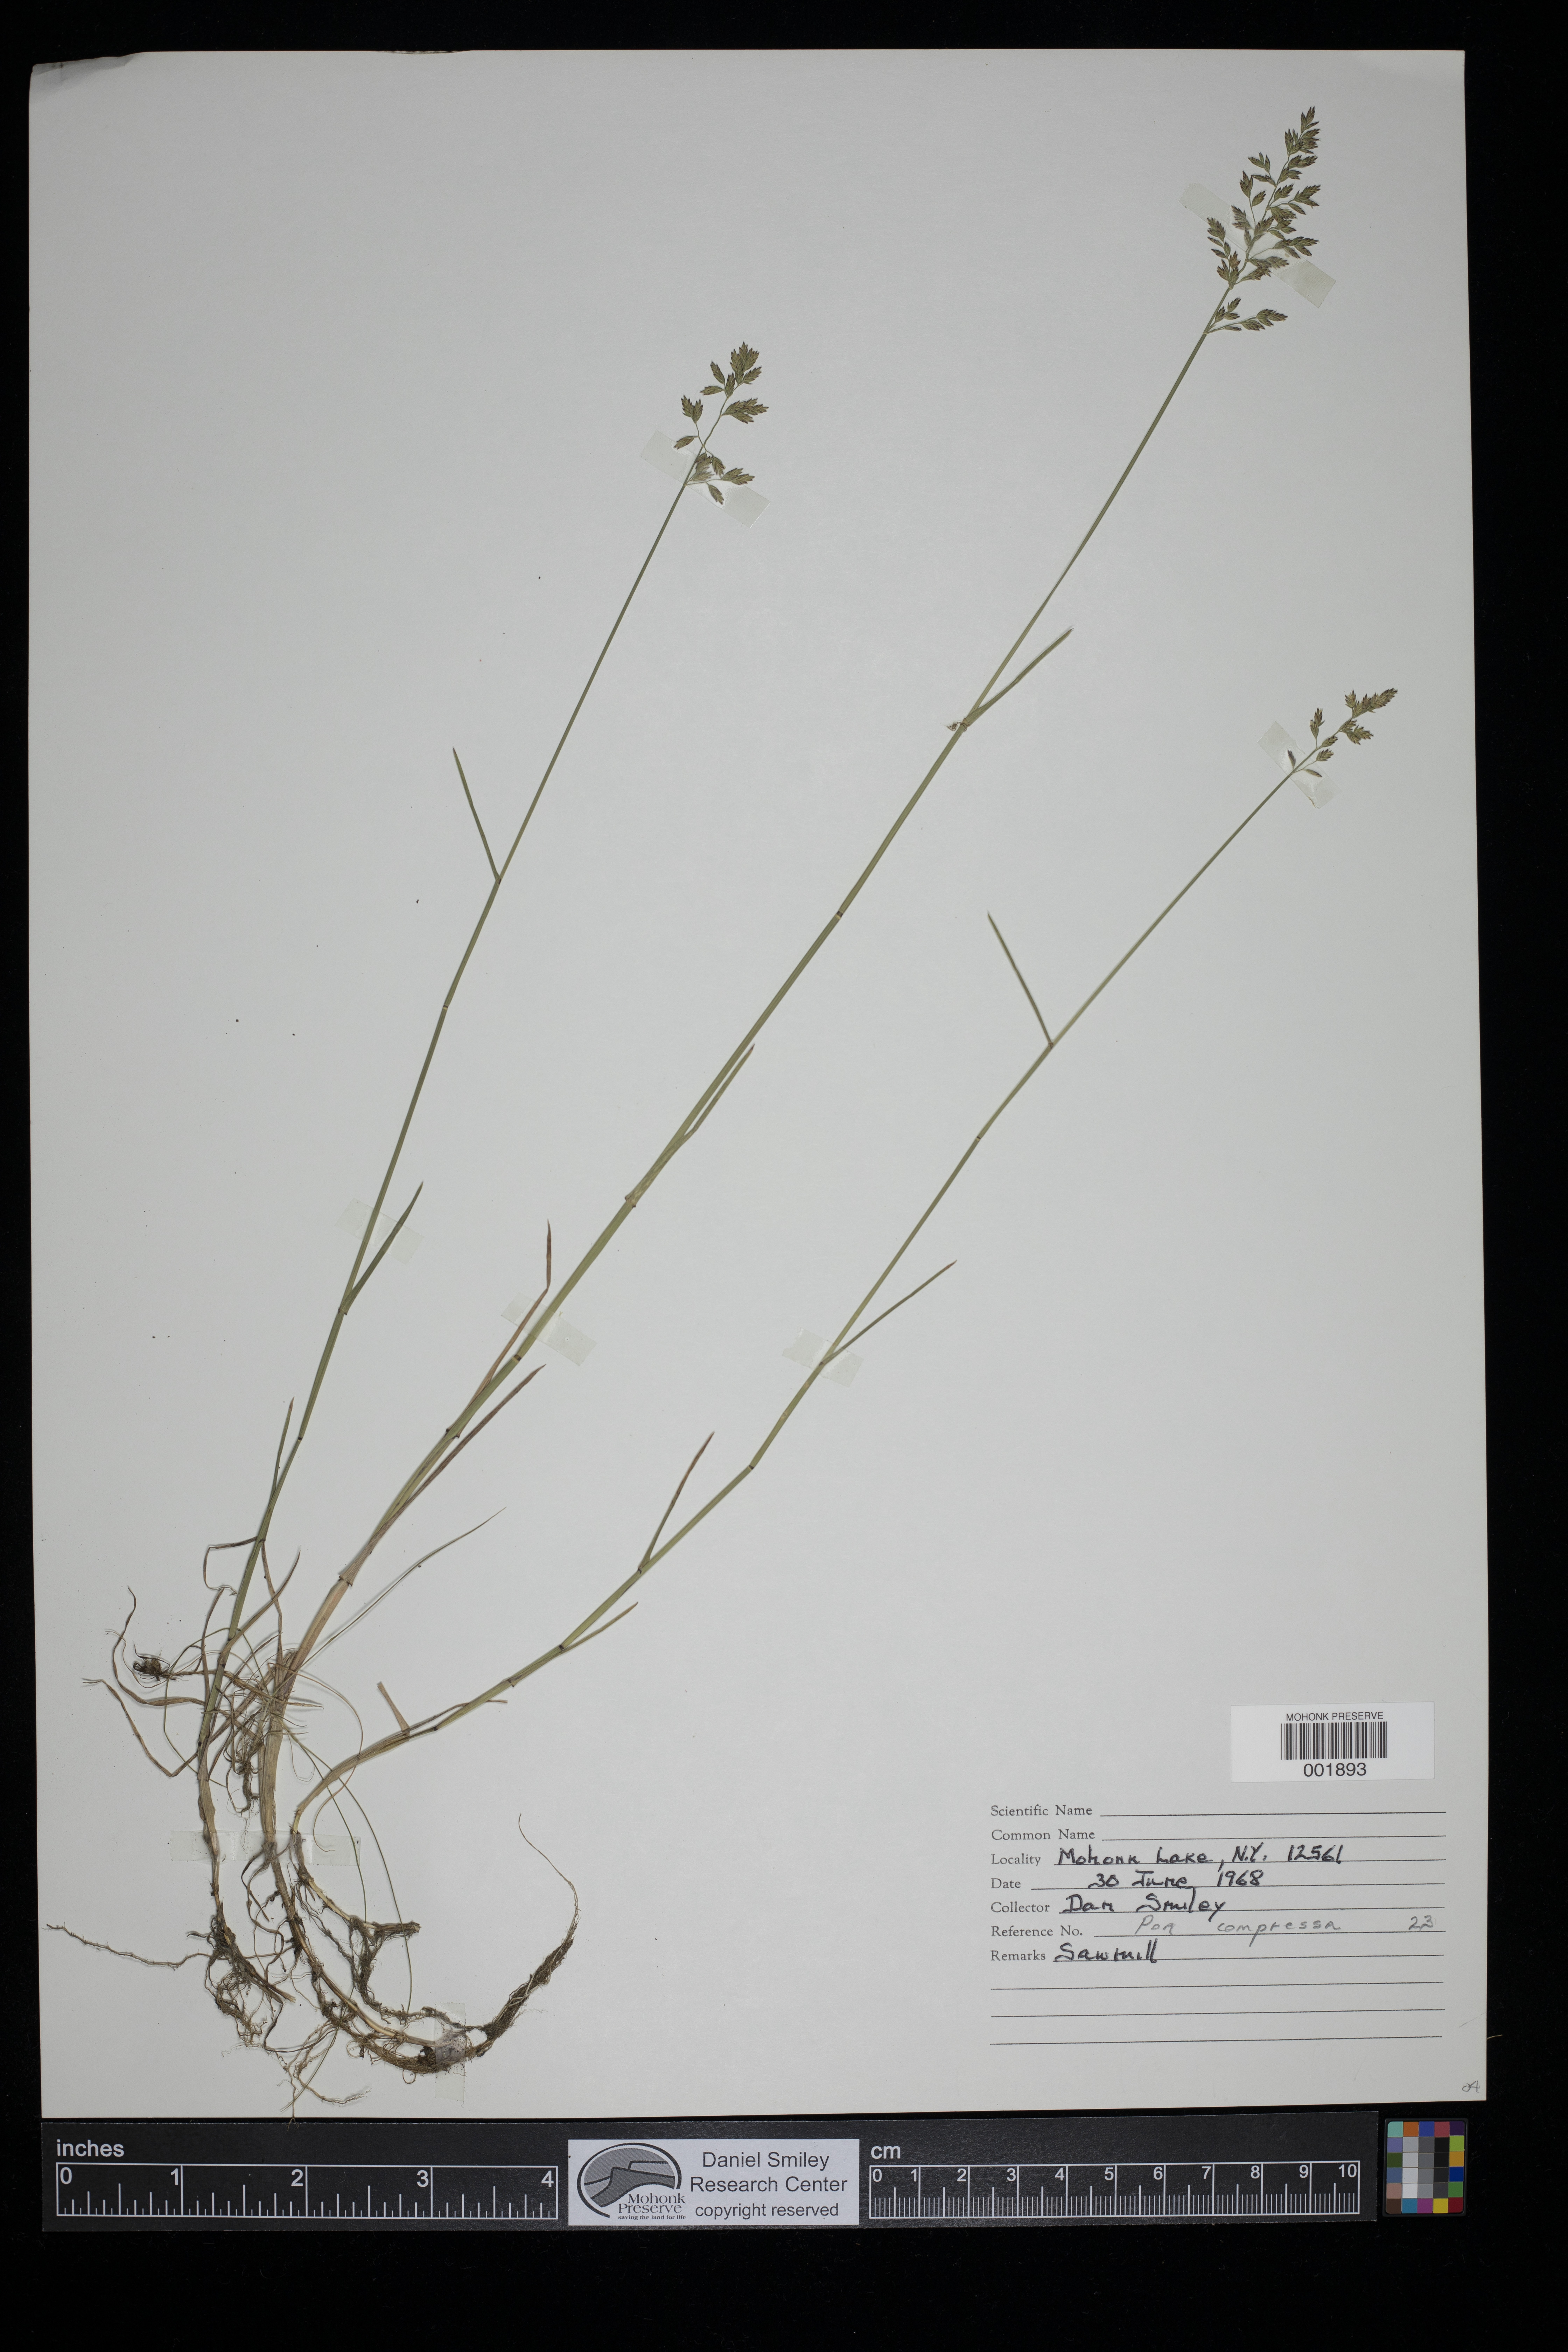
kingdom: Plantae
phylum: Tracheophyta
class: Liliopsida
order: Poales
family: Poaceae
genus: Poa
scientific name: Poa compressa
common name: Canada bluegrass
